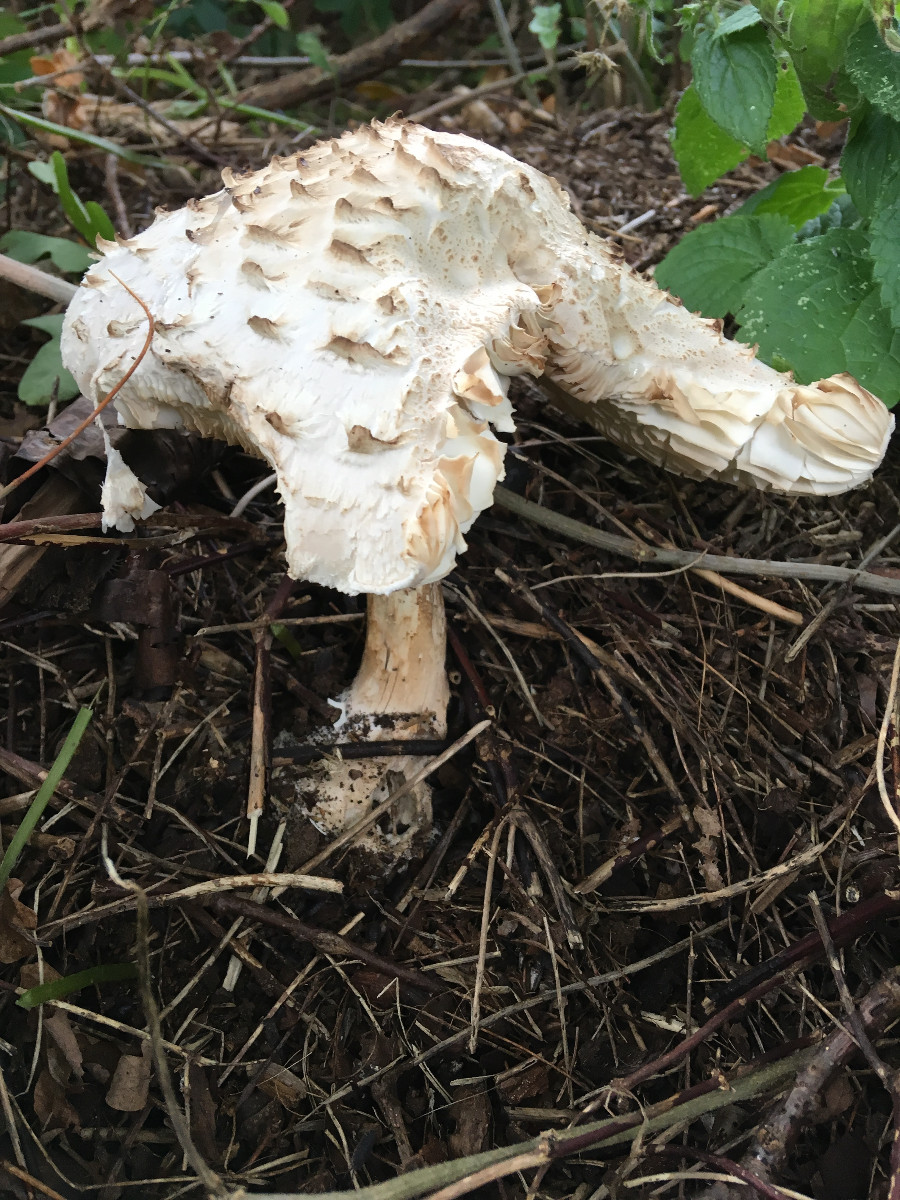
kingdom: Fungi
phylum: Basidiomycota
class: Agaricomycetes
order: Agaricales
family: Agaricaceae
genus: Chlorophyllum
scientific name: Chlorophyllum
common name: rabarberhat
